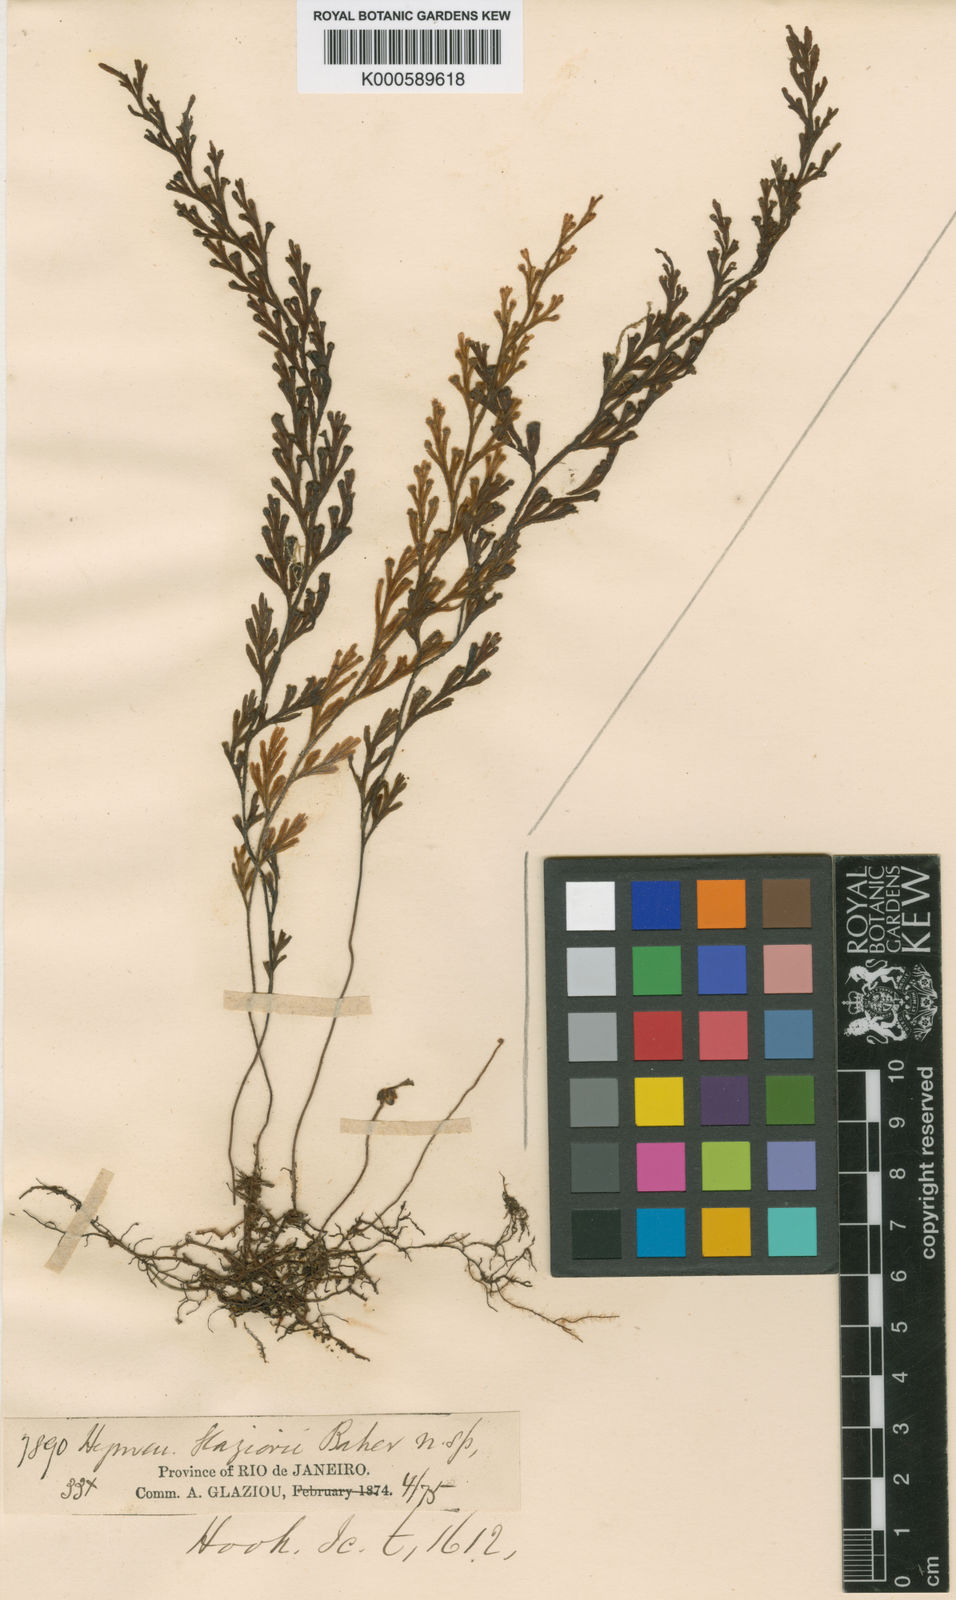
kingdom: Plantae
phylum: Tracheophyta
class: Polypodiopsida
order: Hymenophyllales
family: Hymenophyllaceae
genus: Hymenophyllum
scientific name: Hymenophyllum glaziovii
